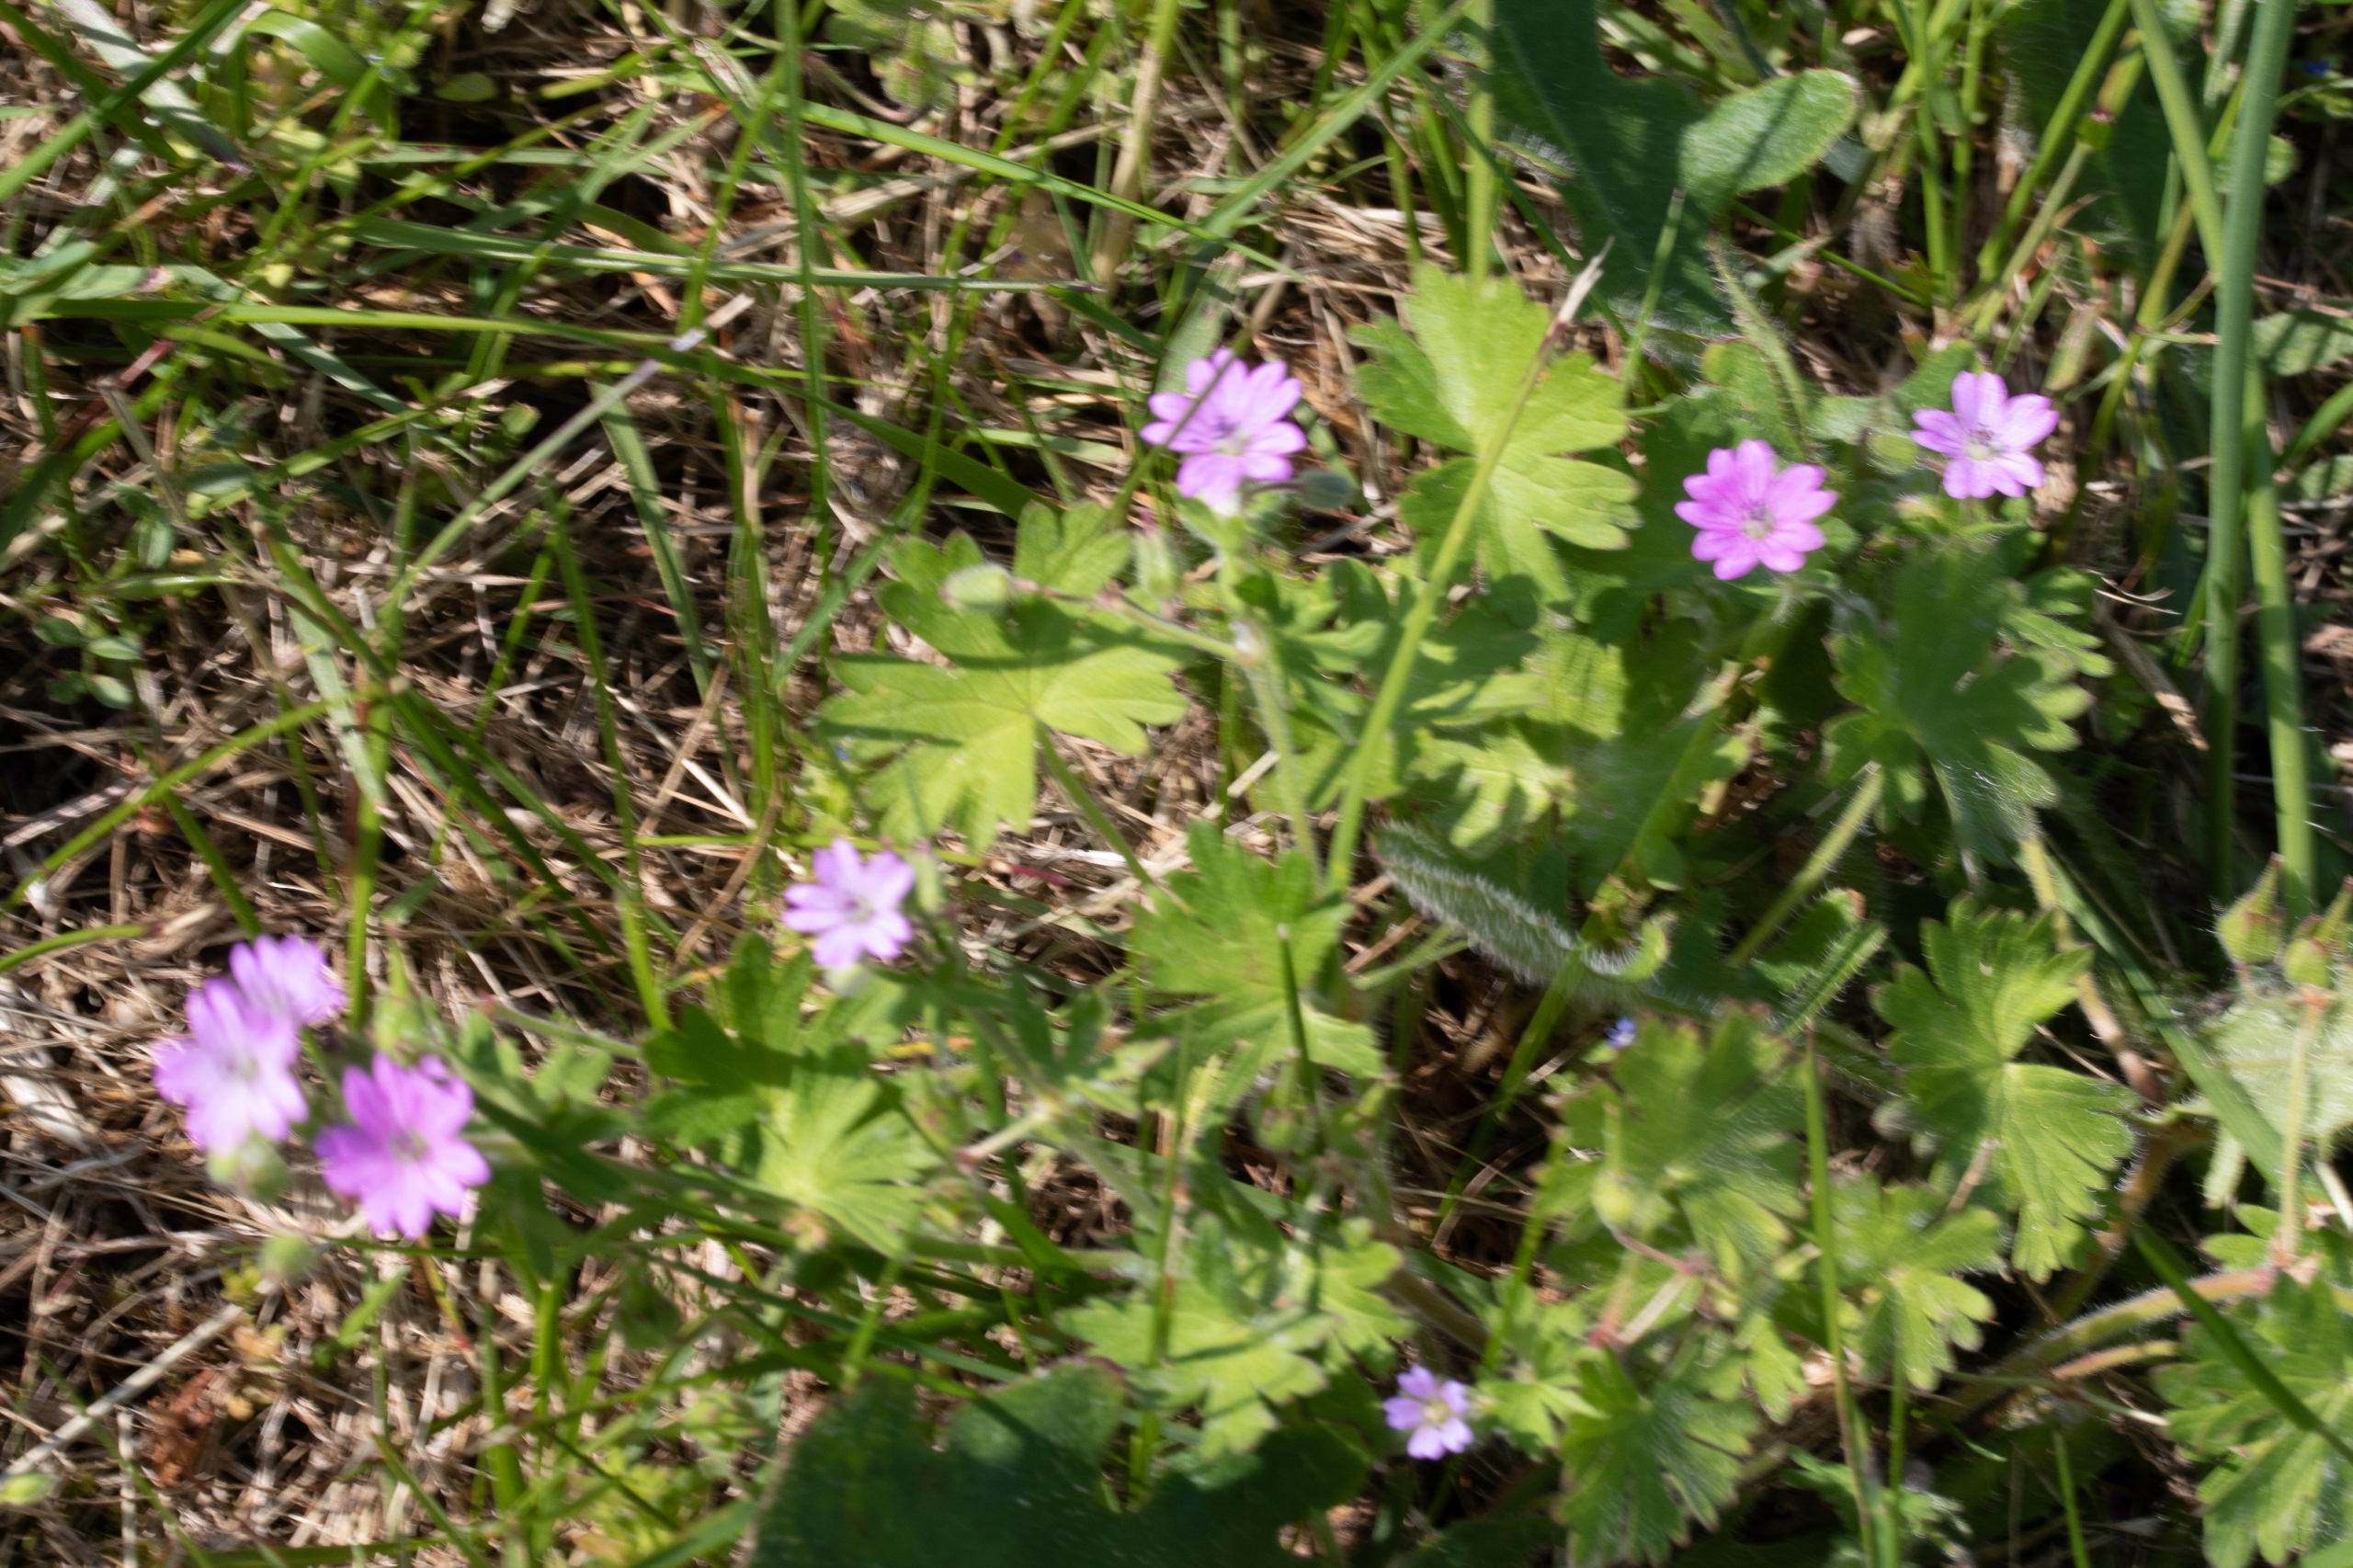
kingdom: Plantae
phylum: Tracheophyta
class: Magnoliopsida
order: Geraniales
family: Geraniaceae
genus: Geranium
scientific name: Geranium molle
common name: Blød storkenæb
